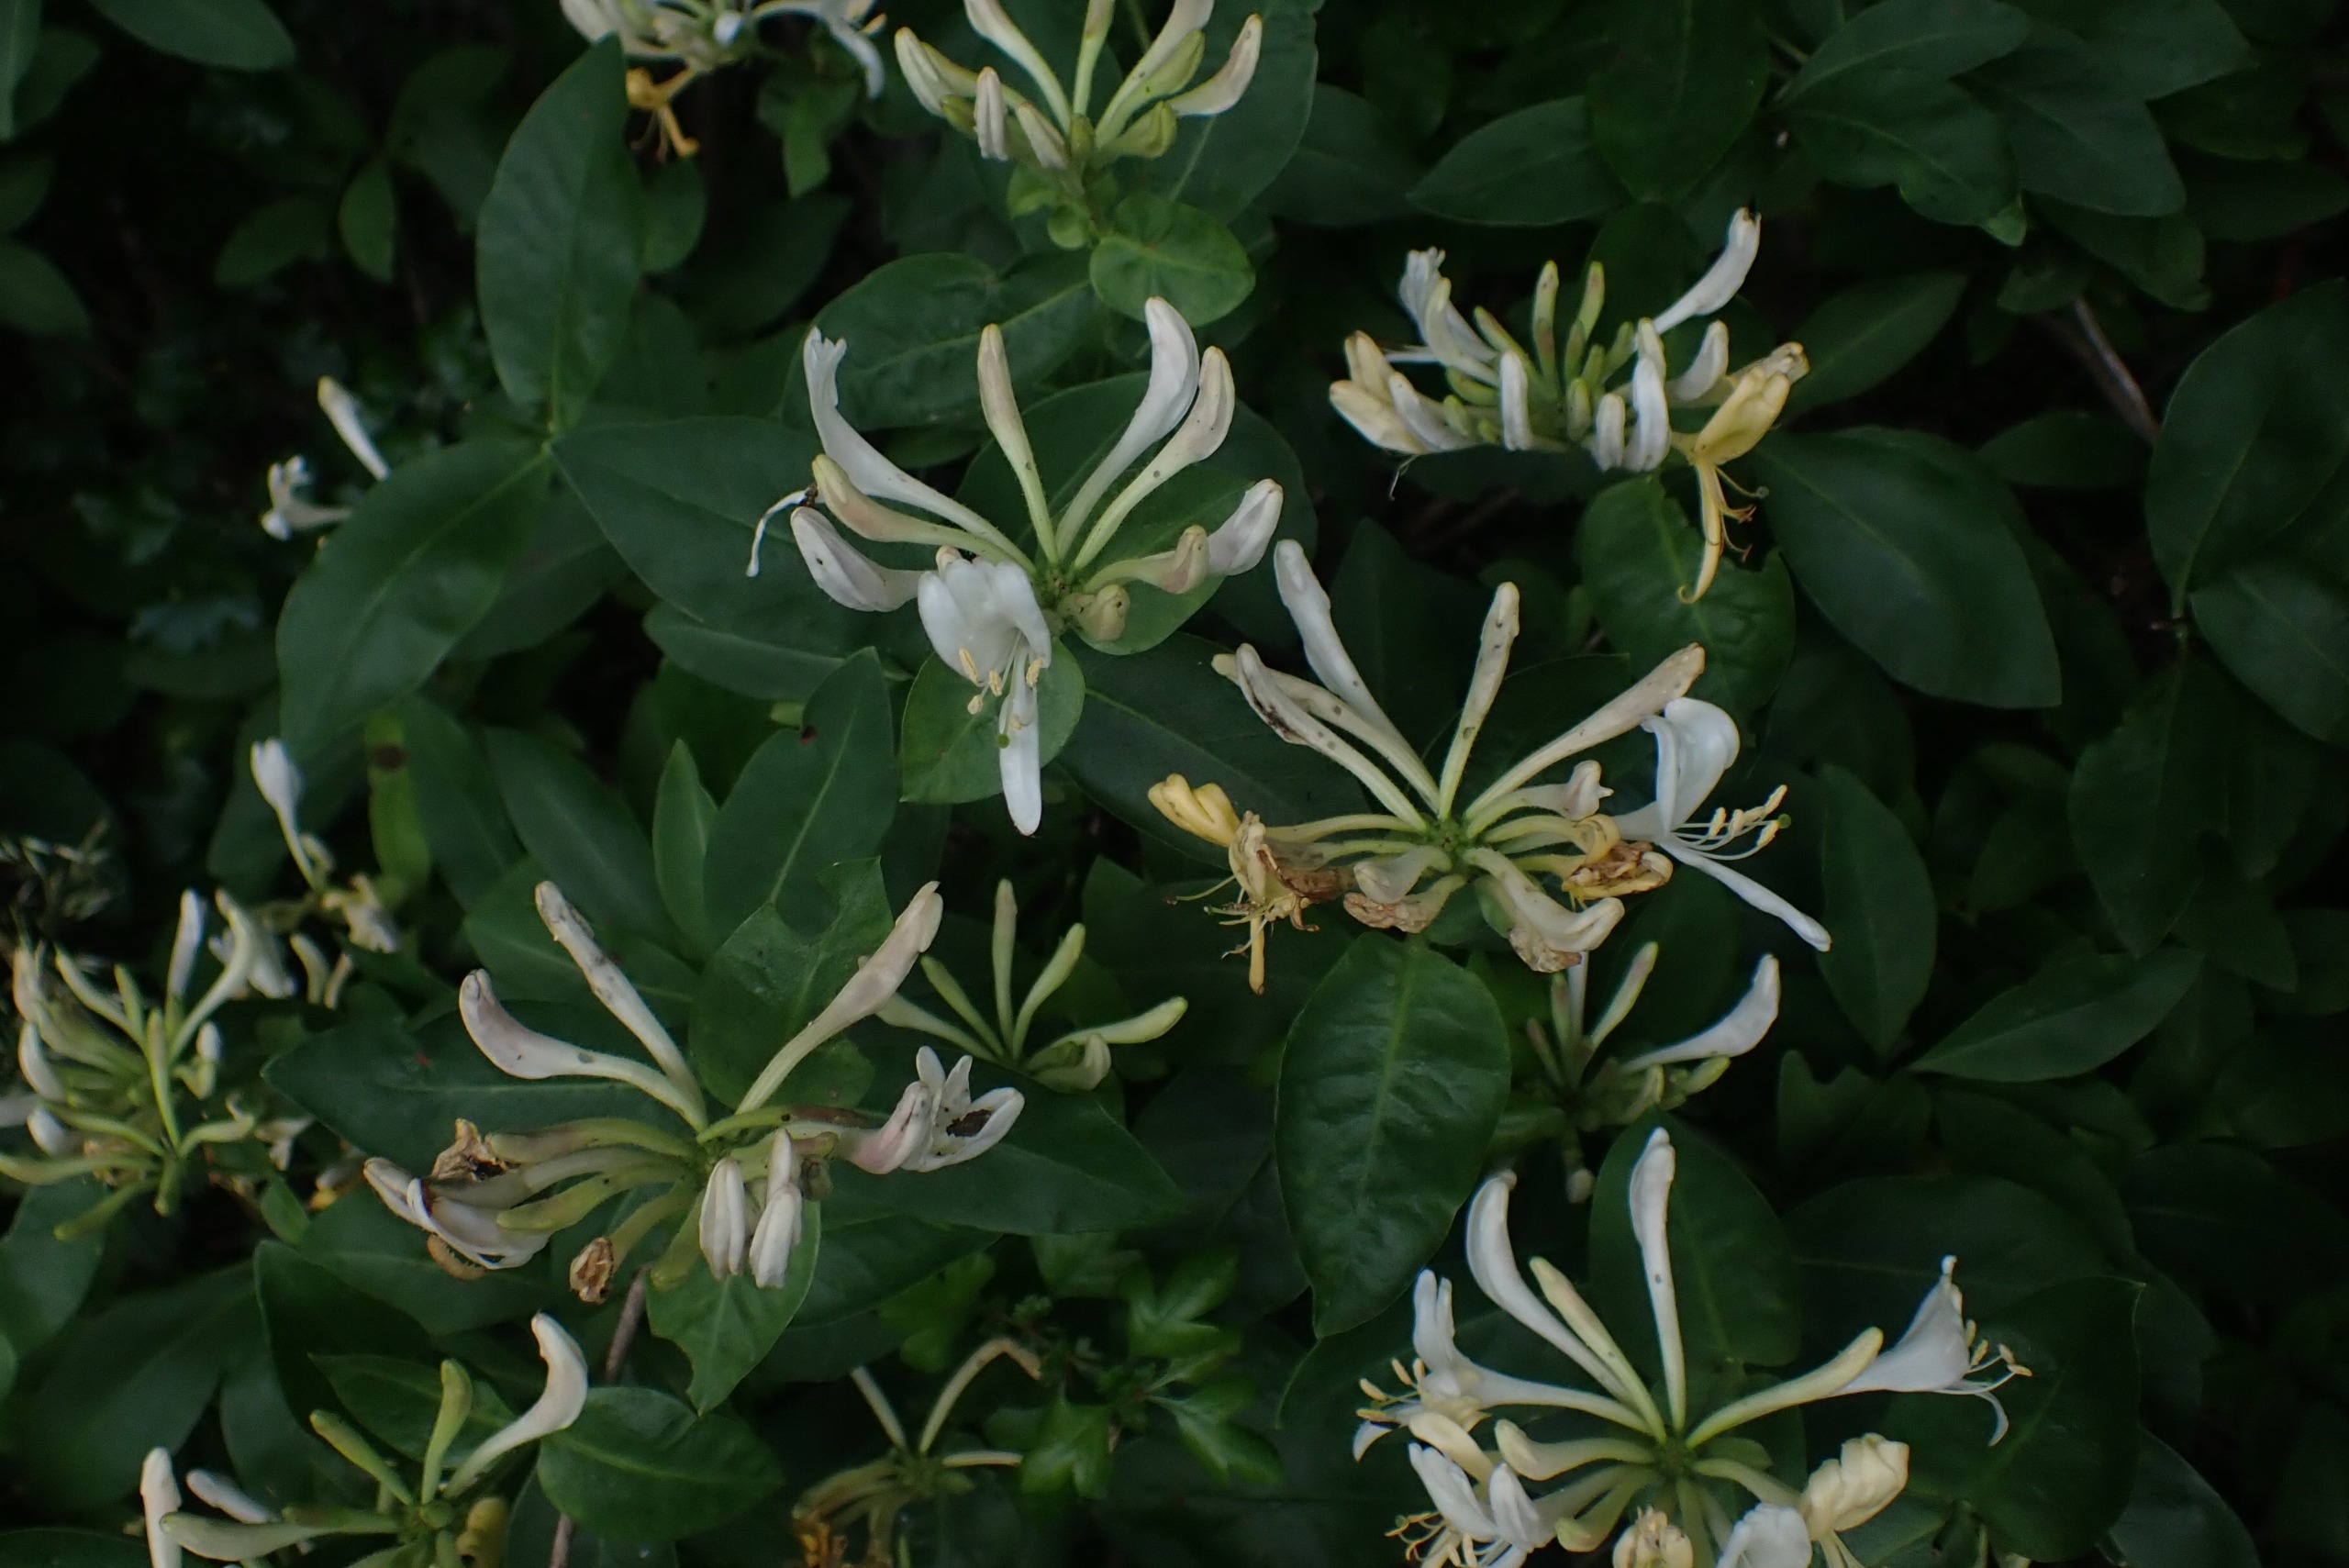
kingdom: Plantae
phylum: Tracheophyta
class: Magnoliopsida
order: Dipsacales
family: Caprifoliaceae
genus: Lonicera
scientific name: Lonicera periclymenum
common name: Almindelig gedeblad
